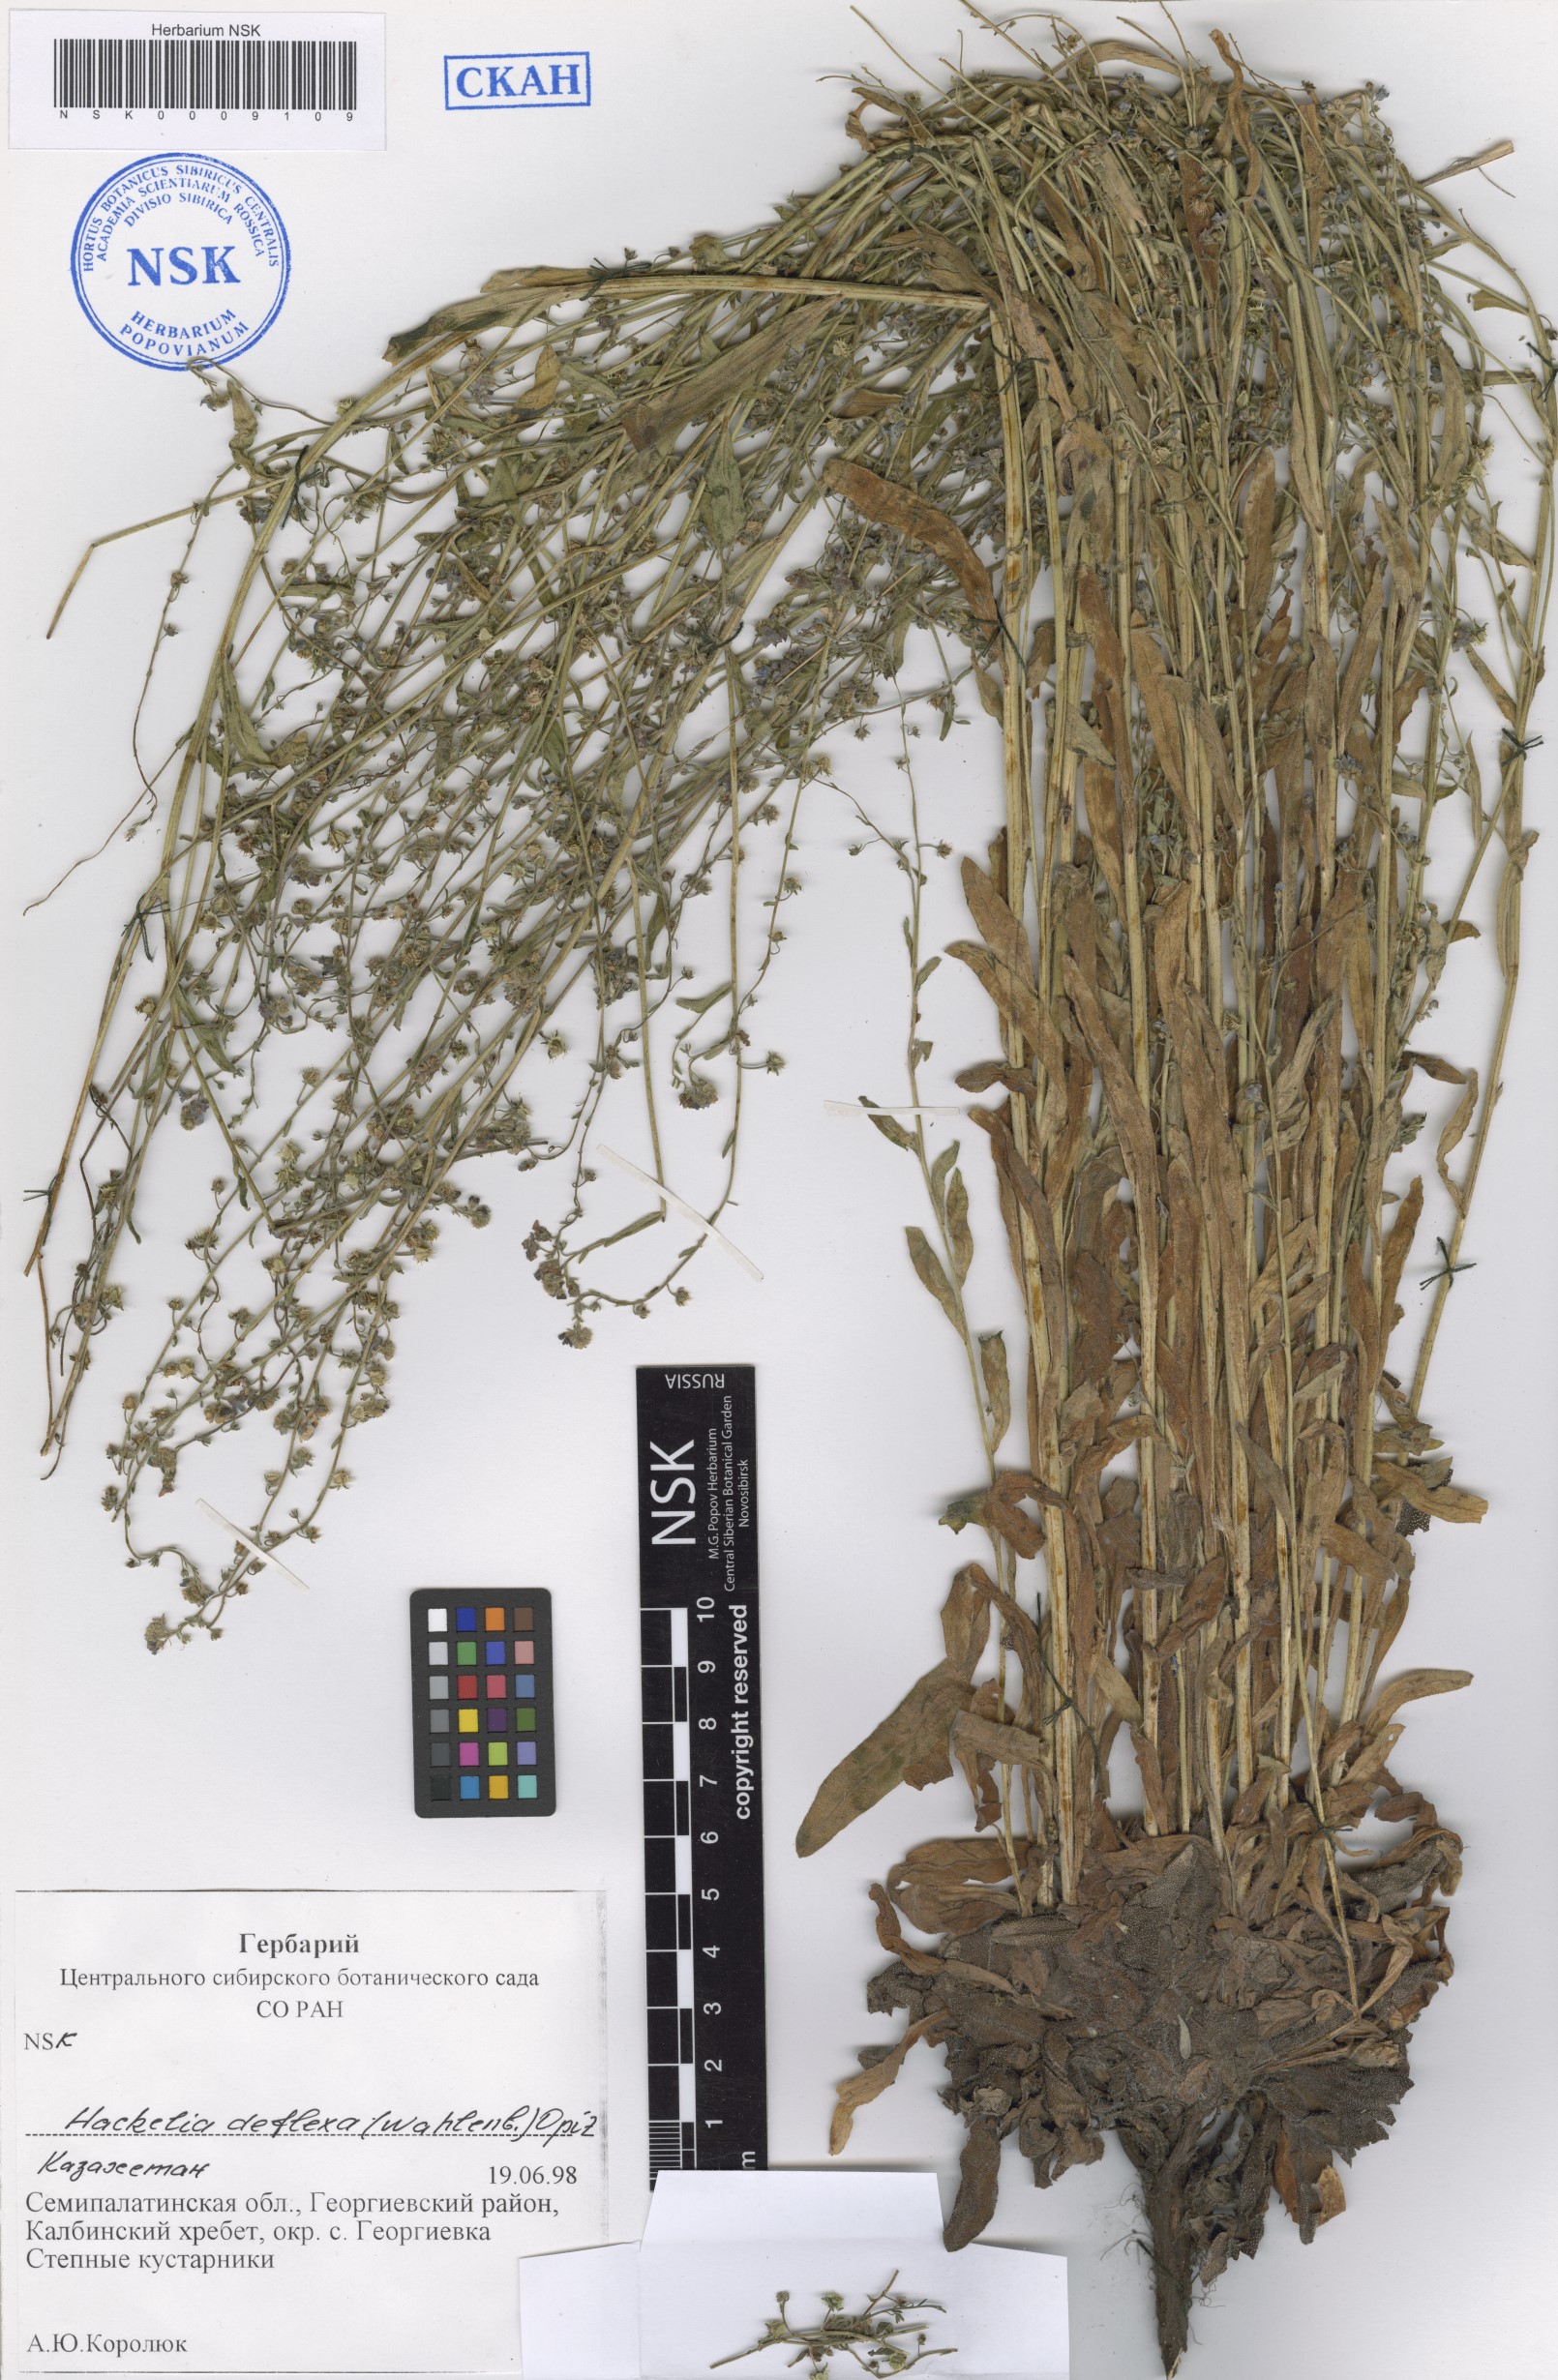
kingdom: Plantae
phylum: Tracheophyta
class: Magnoliopsida
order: Boraginales
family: Boraginaceae
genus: Hackelia
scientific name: Hackelia deflexa
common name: Nodding stickseed
